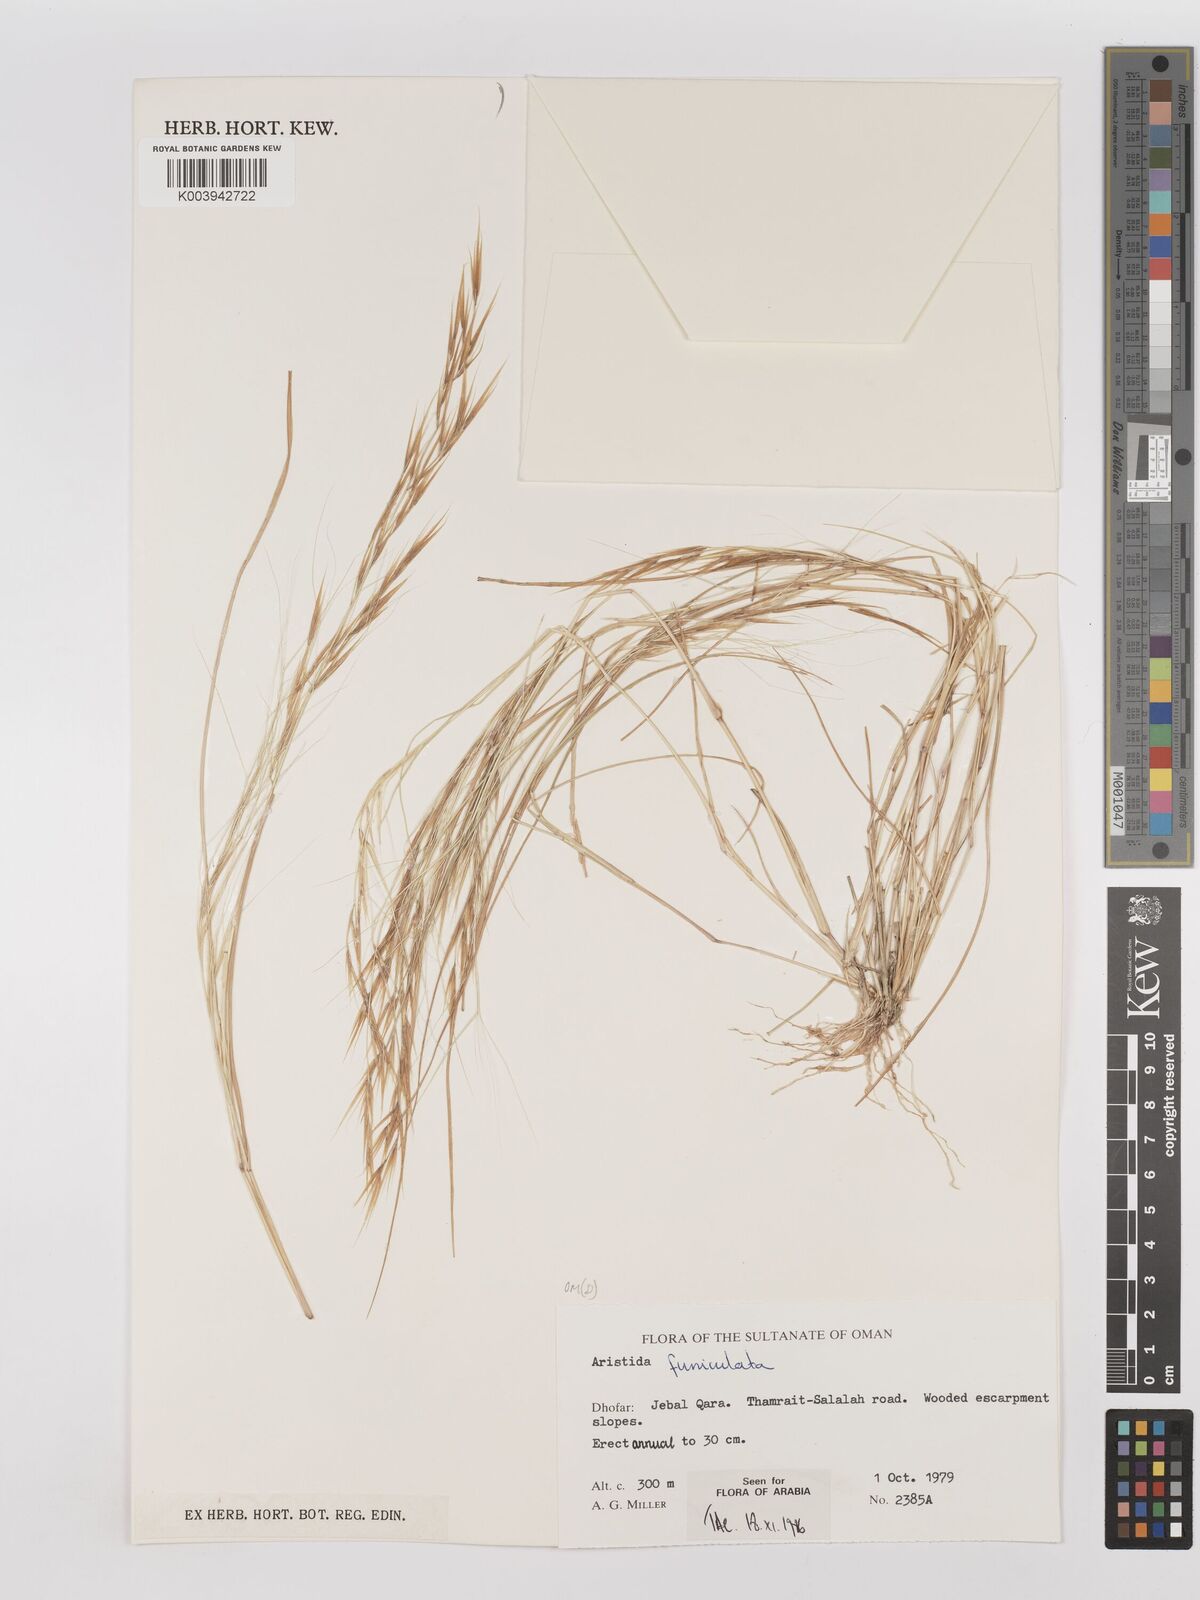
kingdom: Plantae
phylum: Tracheophyta
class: Liliopsida
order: Poales
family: Poaceae
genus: Aristida
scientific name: Aristida funiculata
